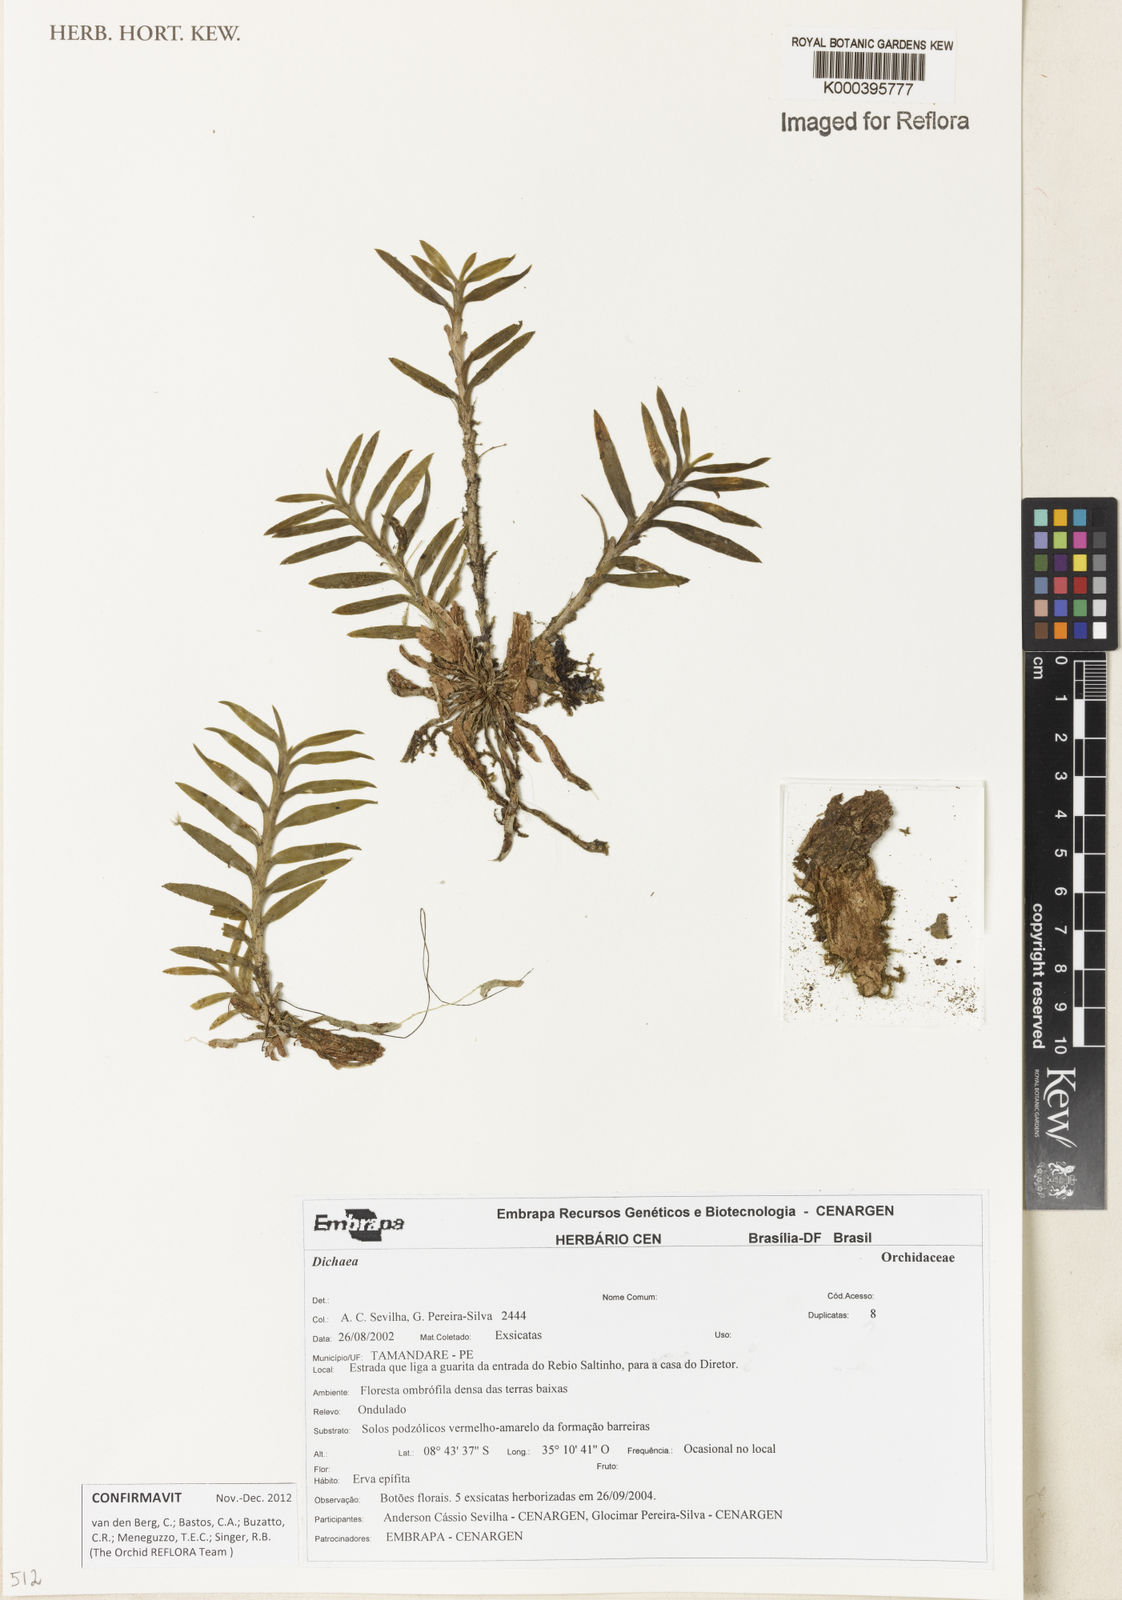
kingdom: Plantae
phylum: Tracheophyta
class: Liliopsida
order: Asparagales
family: Orchidaceae
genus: Dichaea
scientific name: Dichaea
